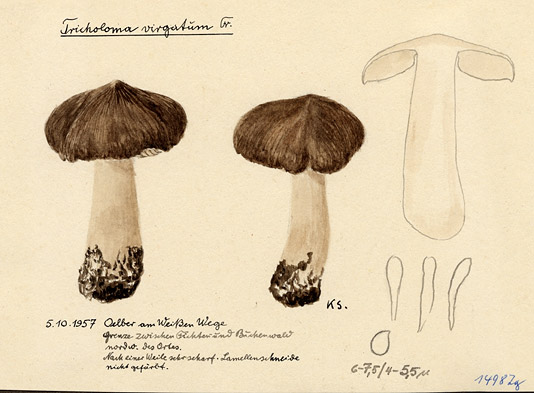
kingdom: Fungi
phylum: Basidiomycota
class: Agaricomycetes
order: Agaricales
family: Tricholomataceae
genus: Tricholoma
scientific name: Tricholoma virgatum
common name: Ashen knight
